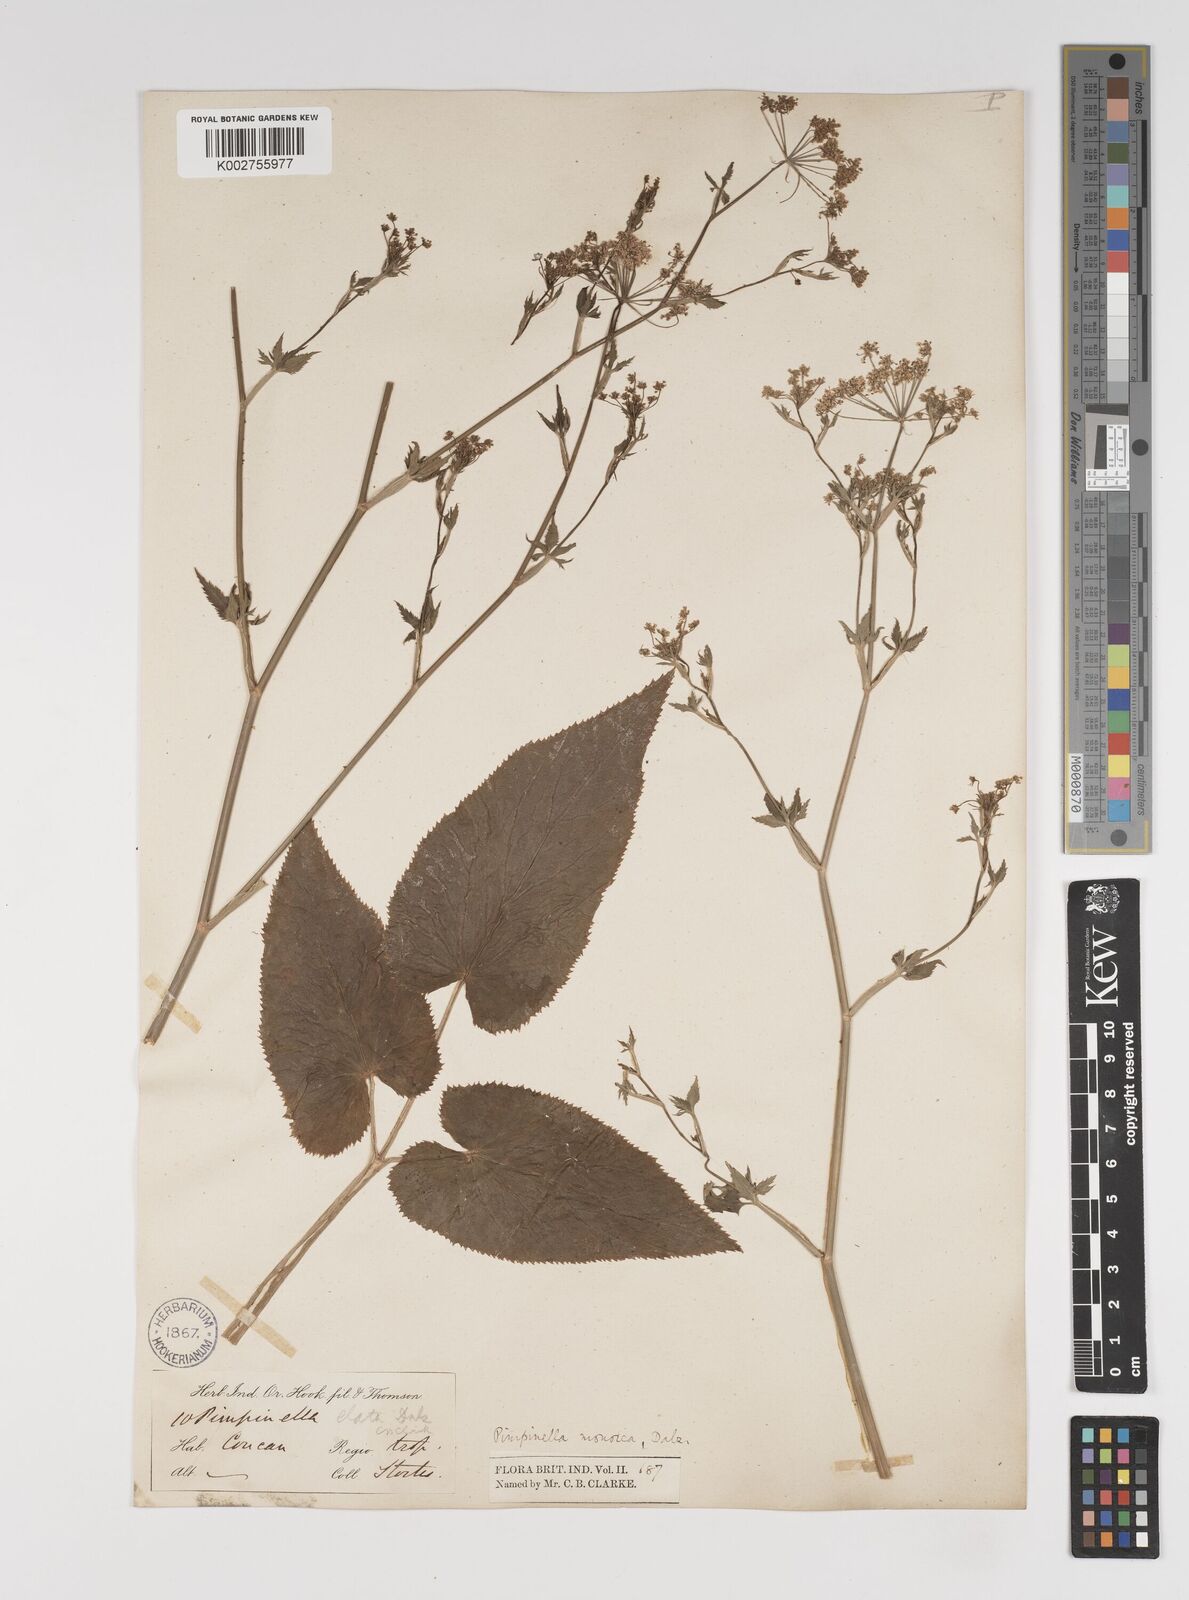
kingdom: Plantae
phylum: Tracheophyta
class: Magnoliopsida
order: Apiales
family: Apiaceae
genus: Pimpinella
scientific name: Pimpinella wallichiana
